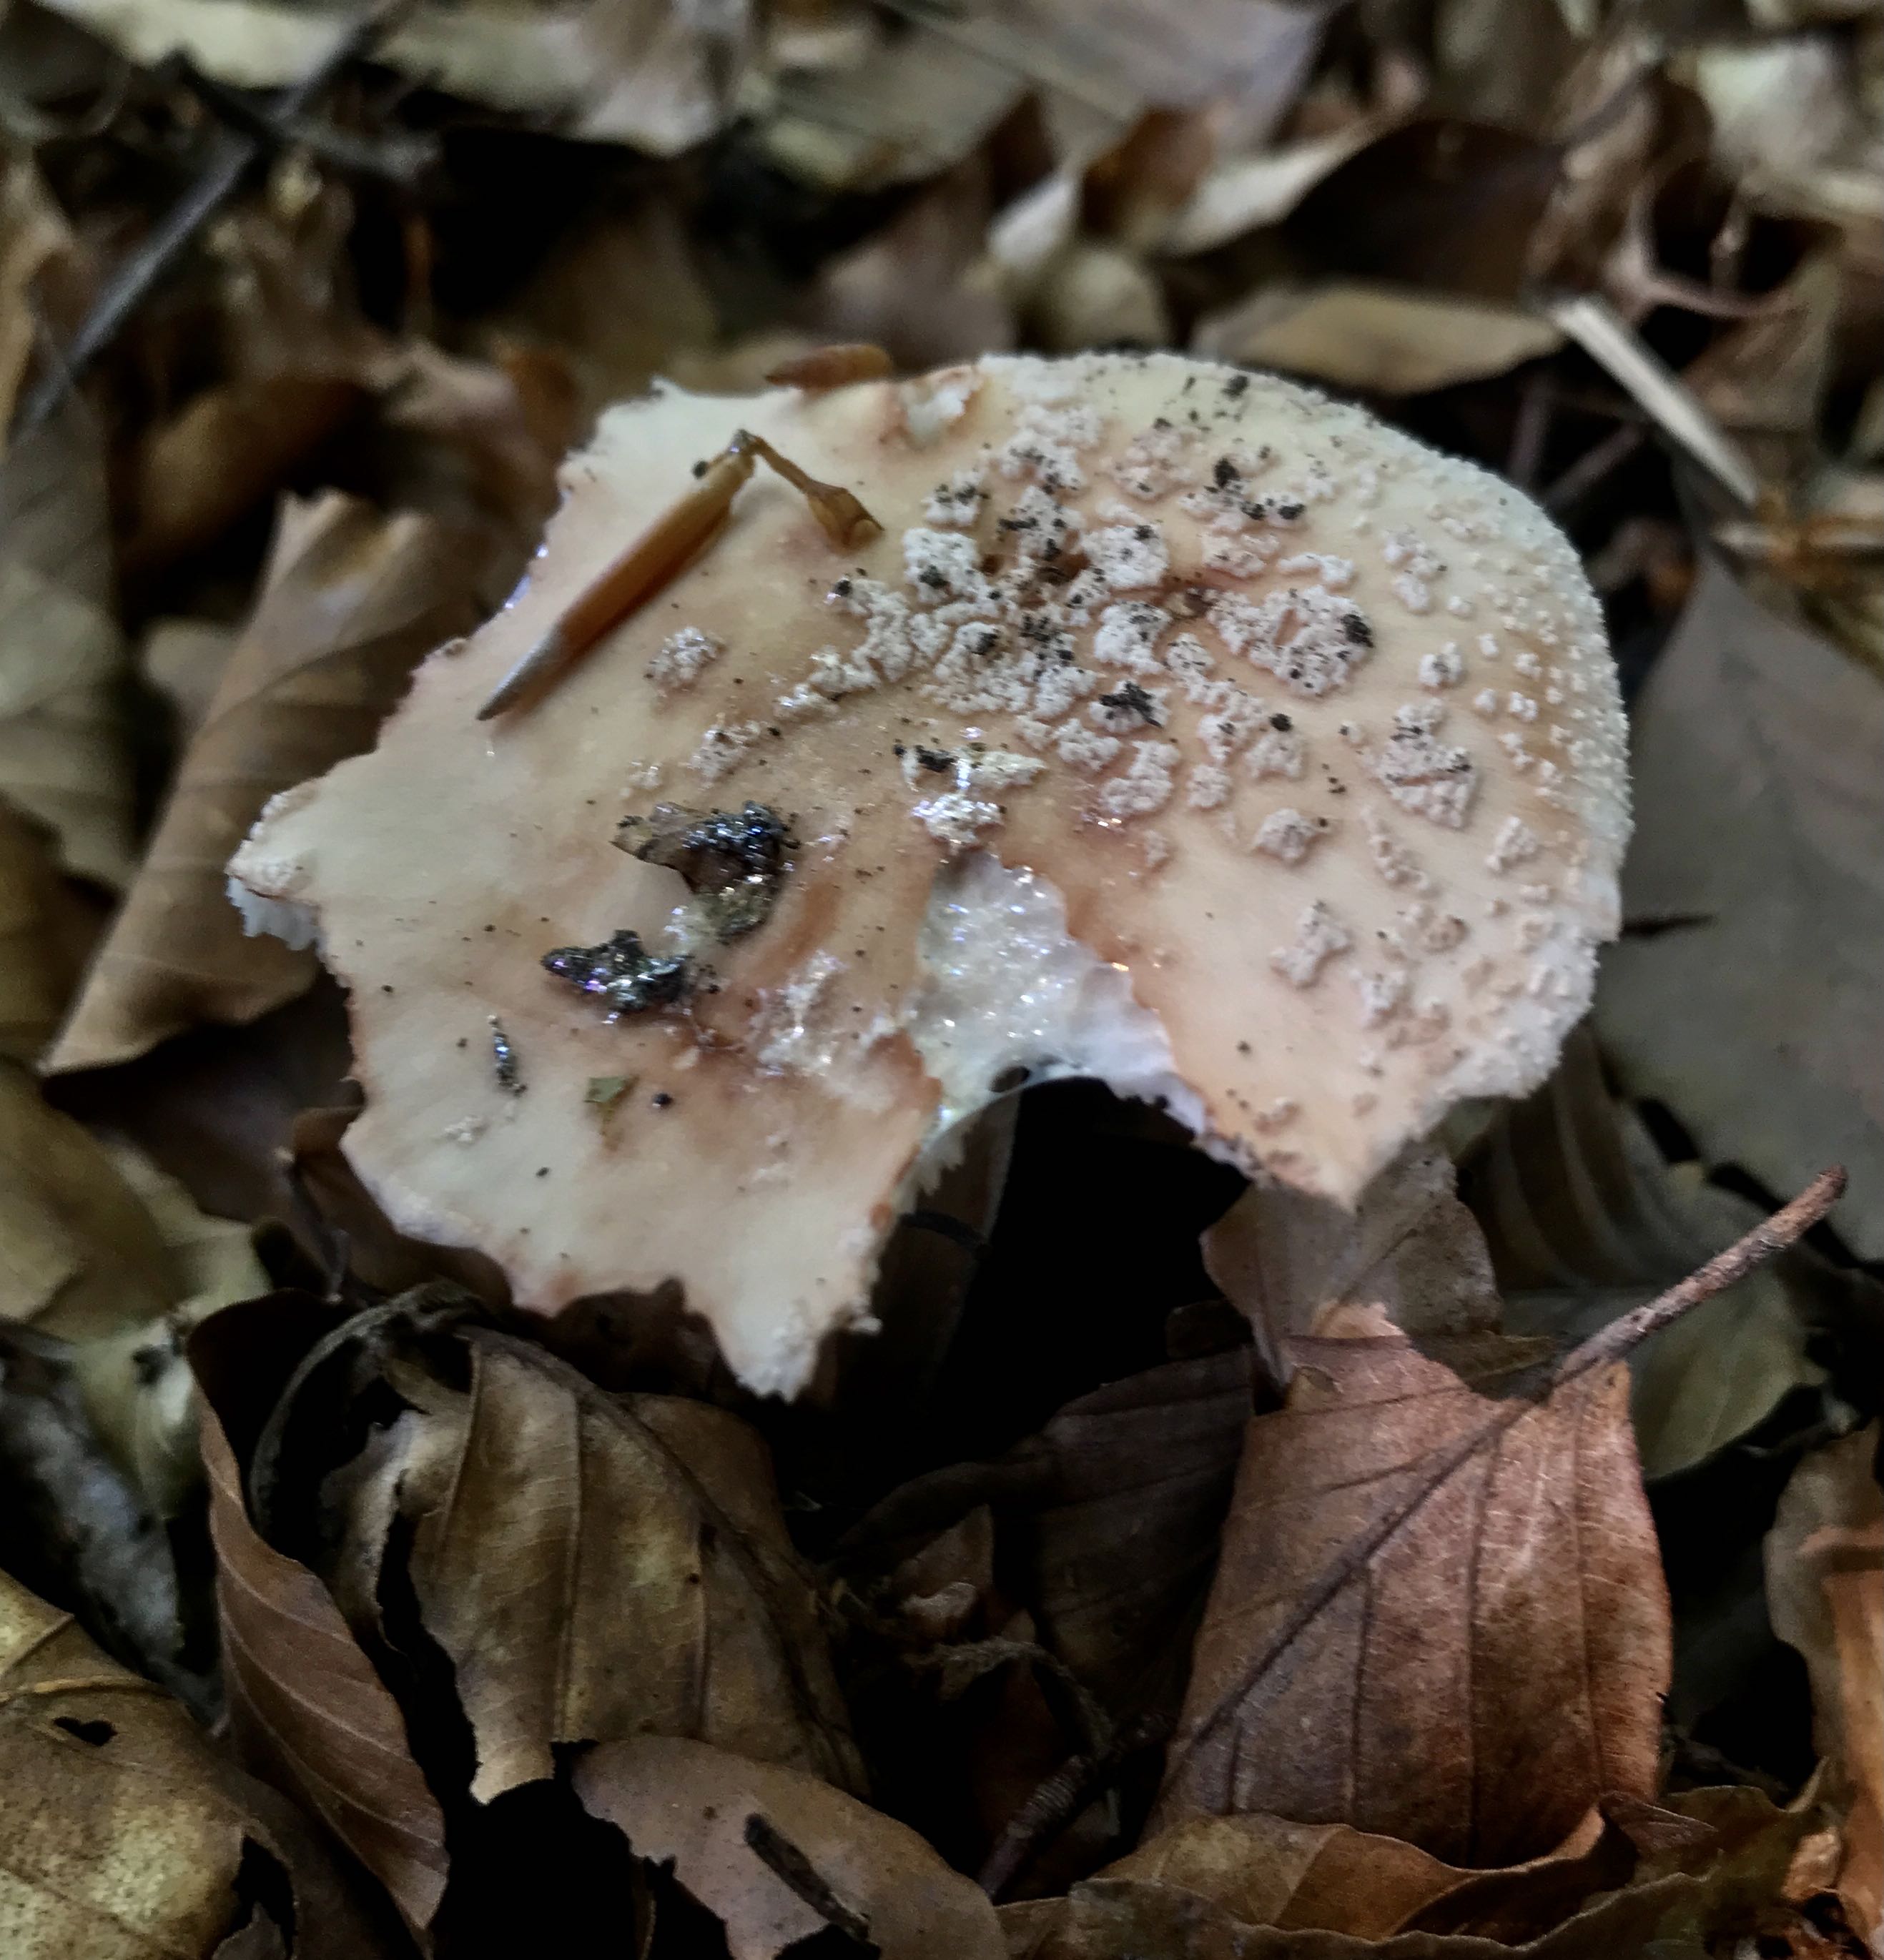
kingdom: Fungi
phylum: Basidiomycota
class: Agaricomycetes
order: Agaricales
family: Amanitaceae
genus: Amanita
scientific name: Amanita rubescens
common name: rødmende fluesvamp
